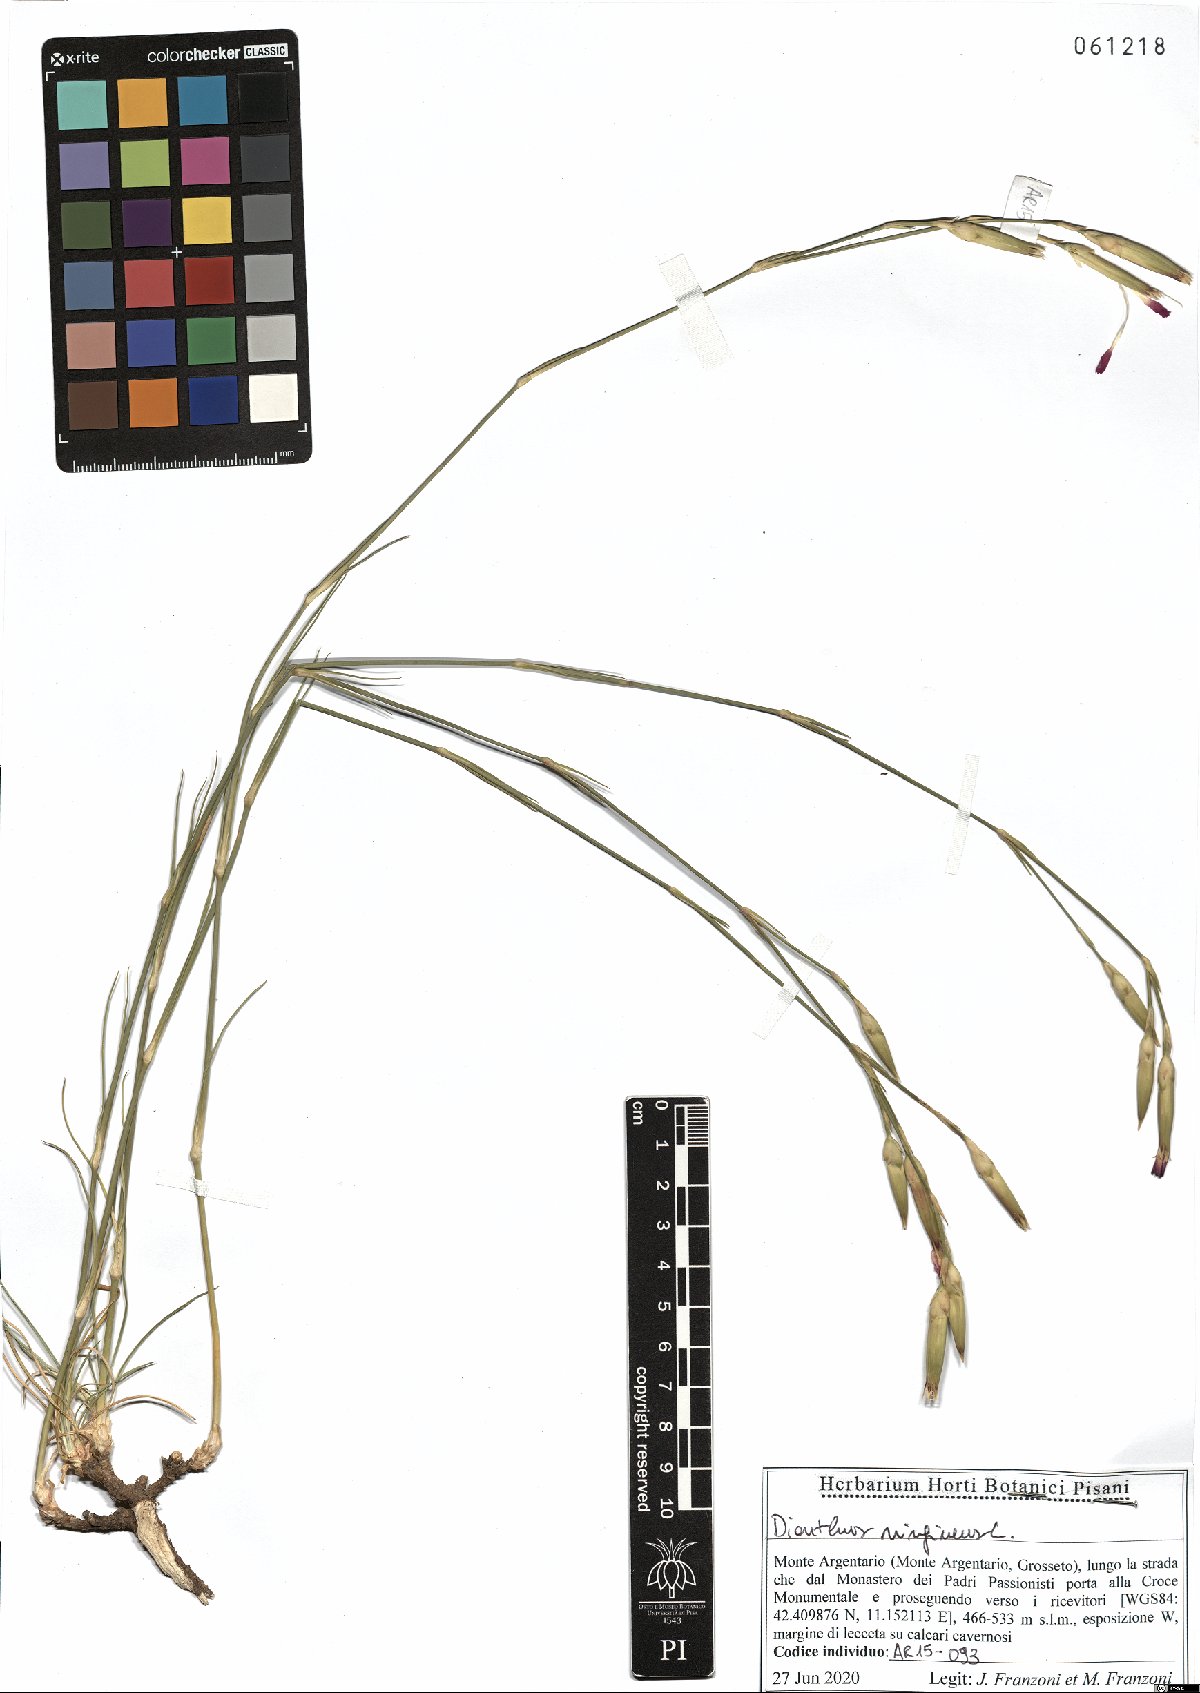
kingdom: Plantae
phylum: Tracheophyta
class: Magnoliopsida
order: Caryophyllales
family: Caryophyllaceae
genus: Dianthus
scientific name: Dianthus virgineus
